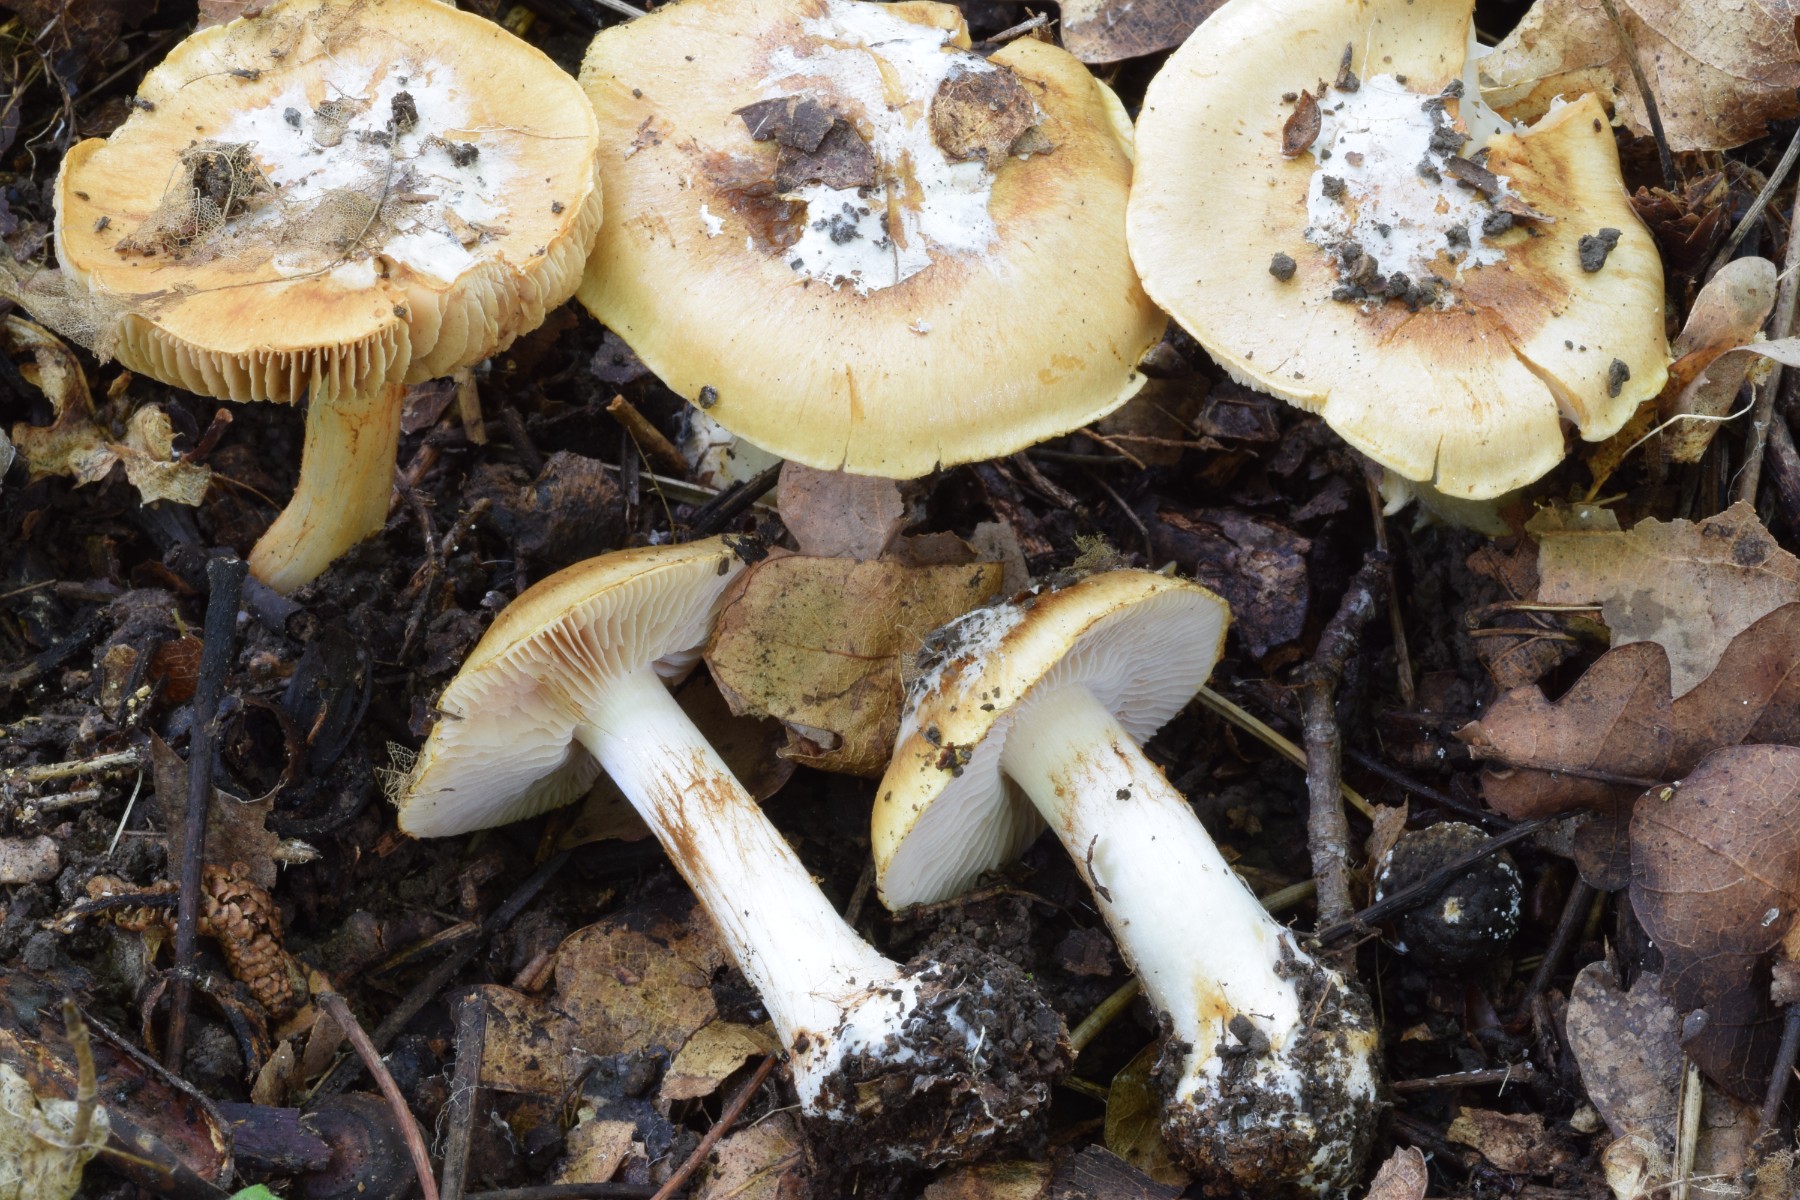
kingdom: Fungi
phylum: Basidiomycota
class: Agaricomycetes
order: Agaricales
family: Cortinariaceae
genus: Cortinarius
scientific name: Cortinarius
